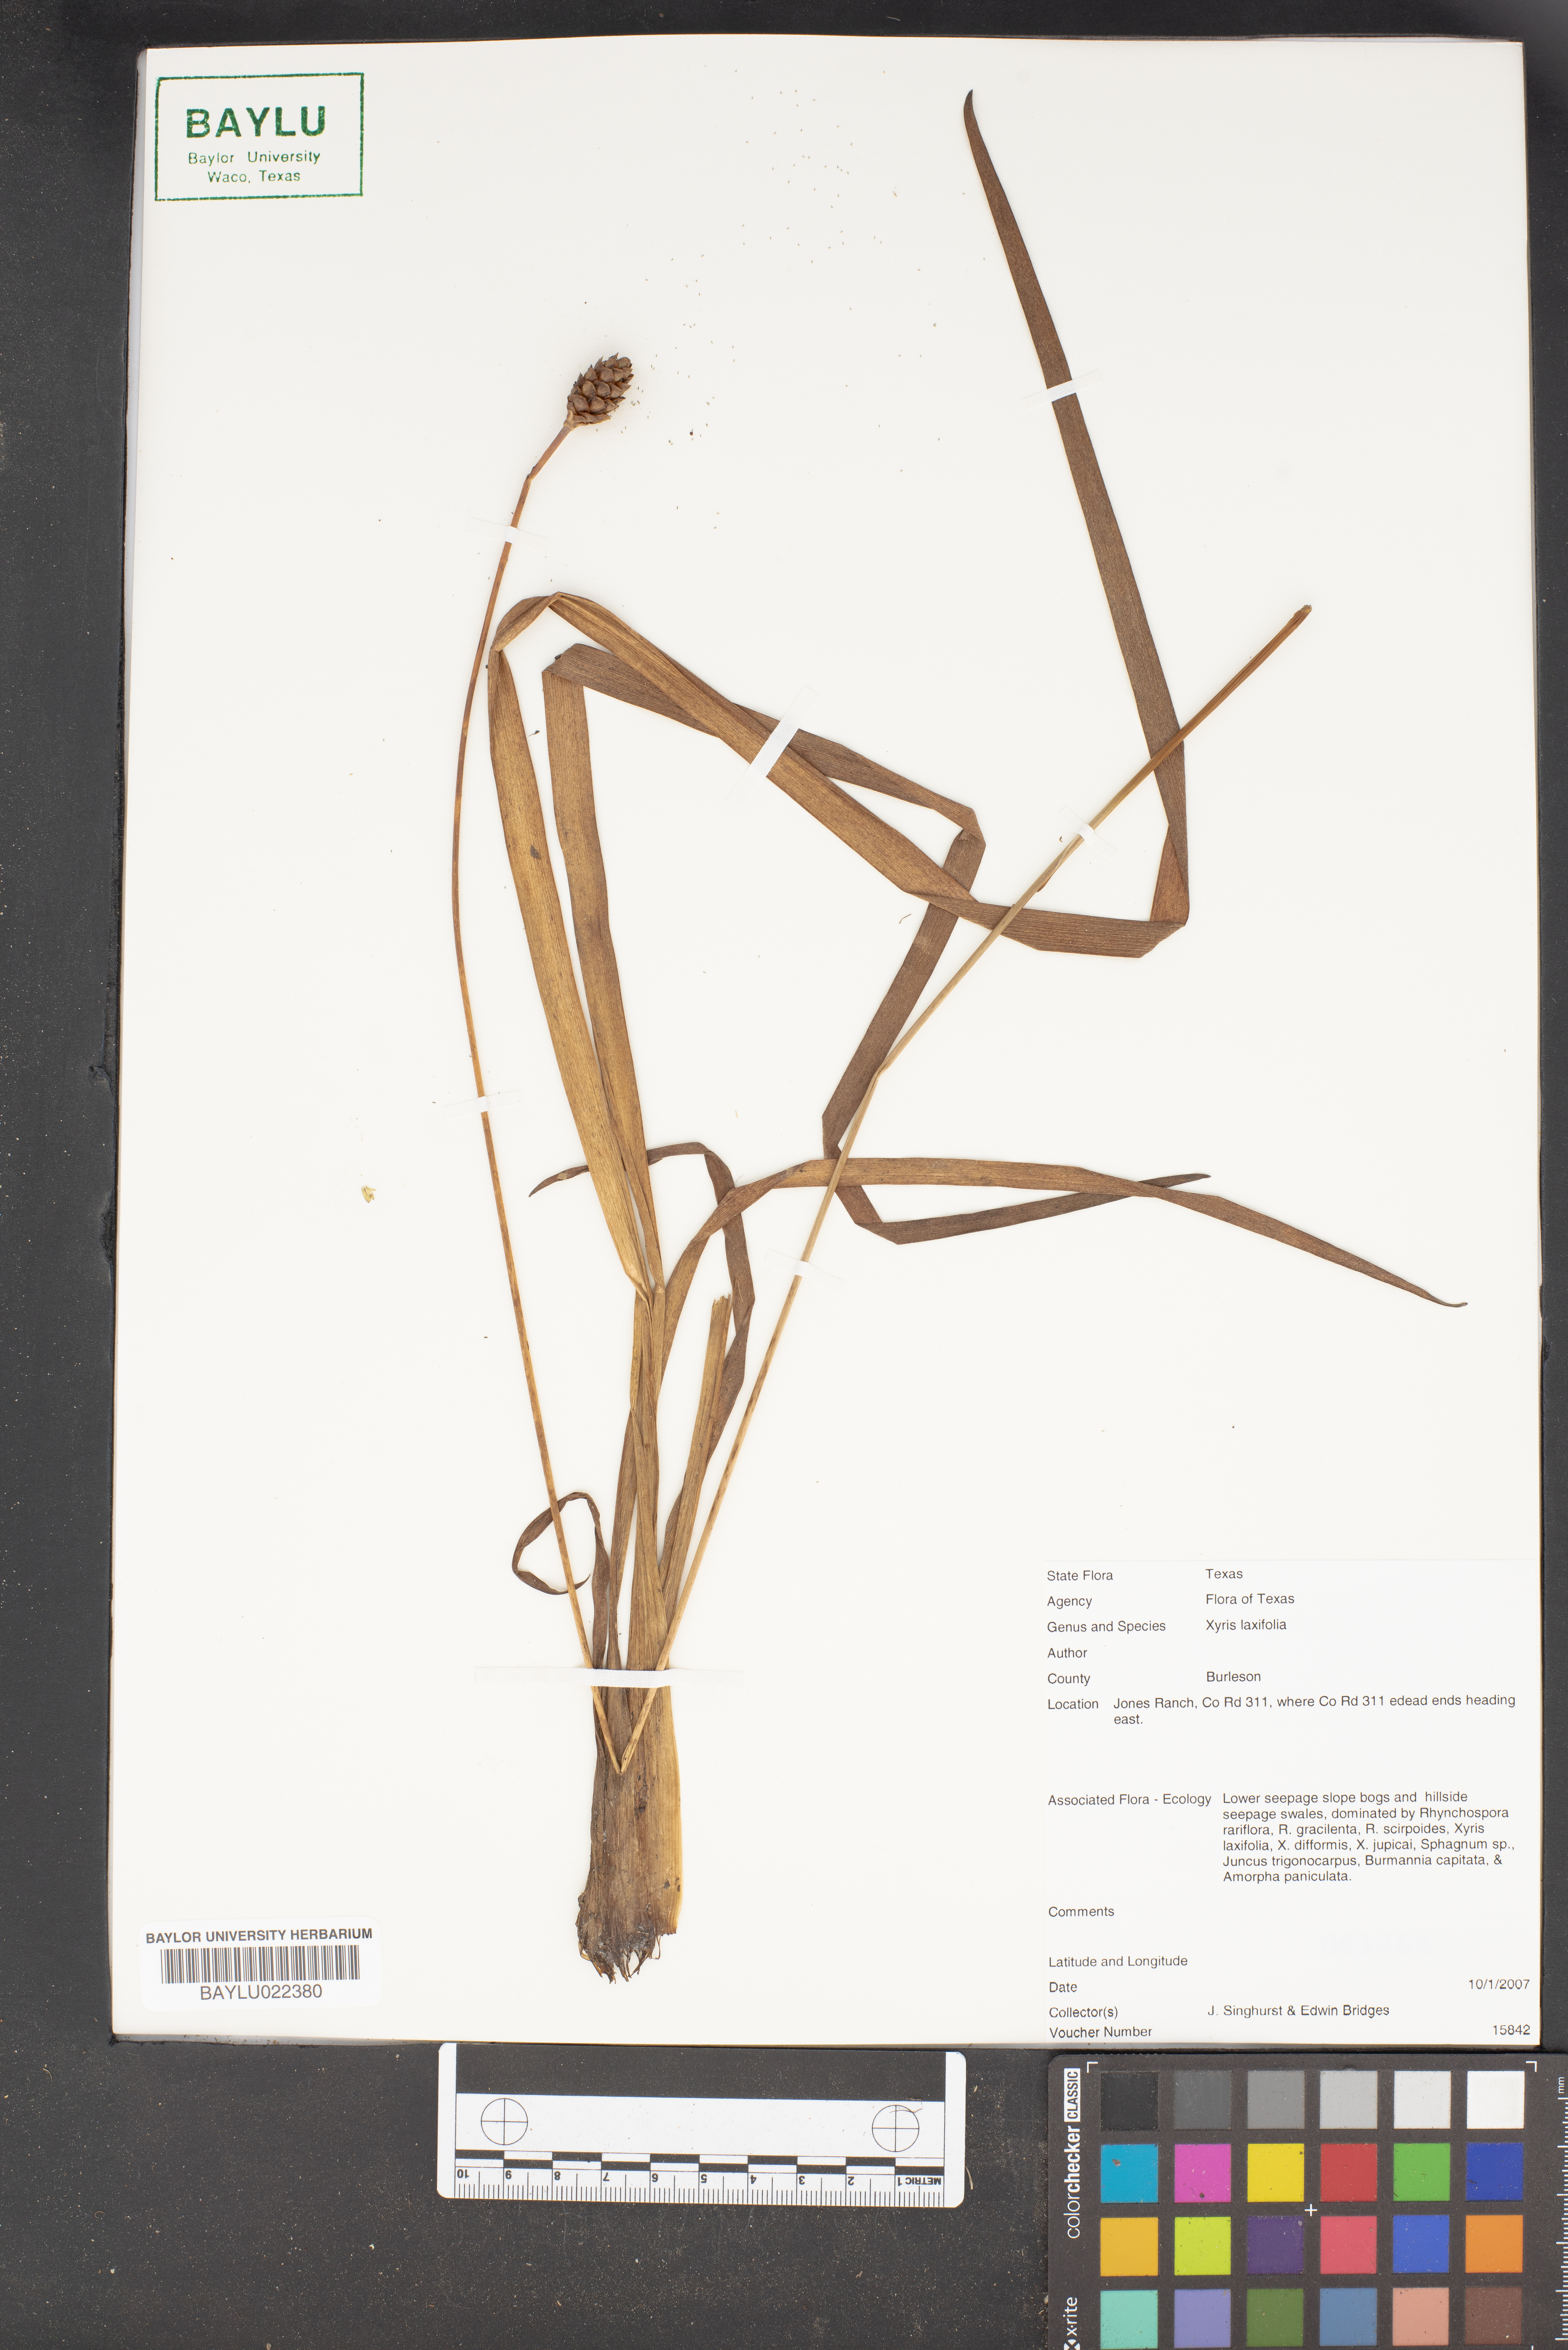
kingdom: Plantae
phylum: Tracheophyta
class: Liliopsida
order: Poales
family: Xyridaceae
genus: Xyris
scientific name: Xyris laxifolia
